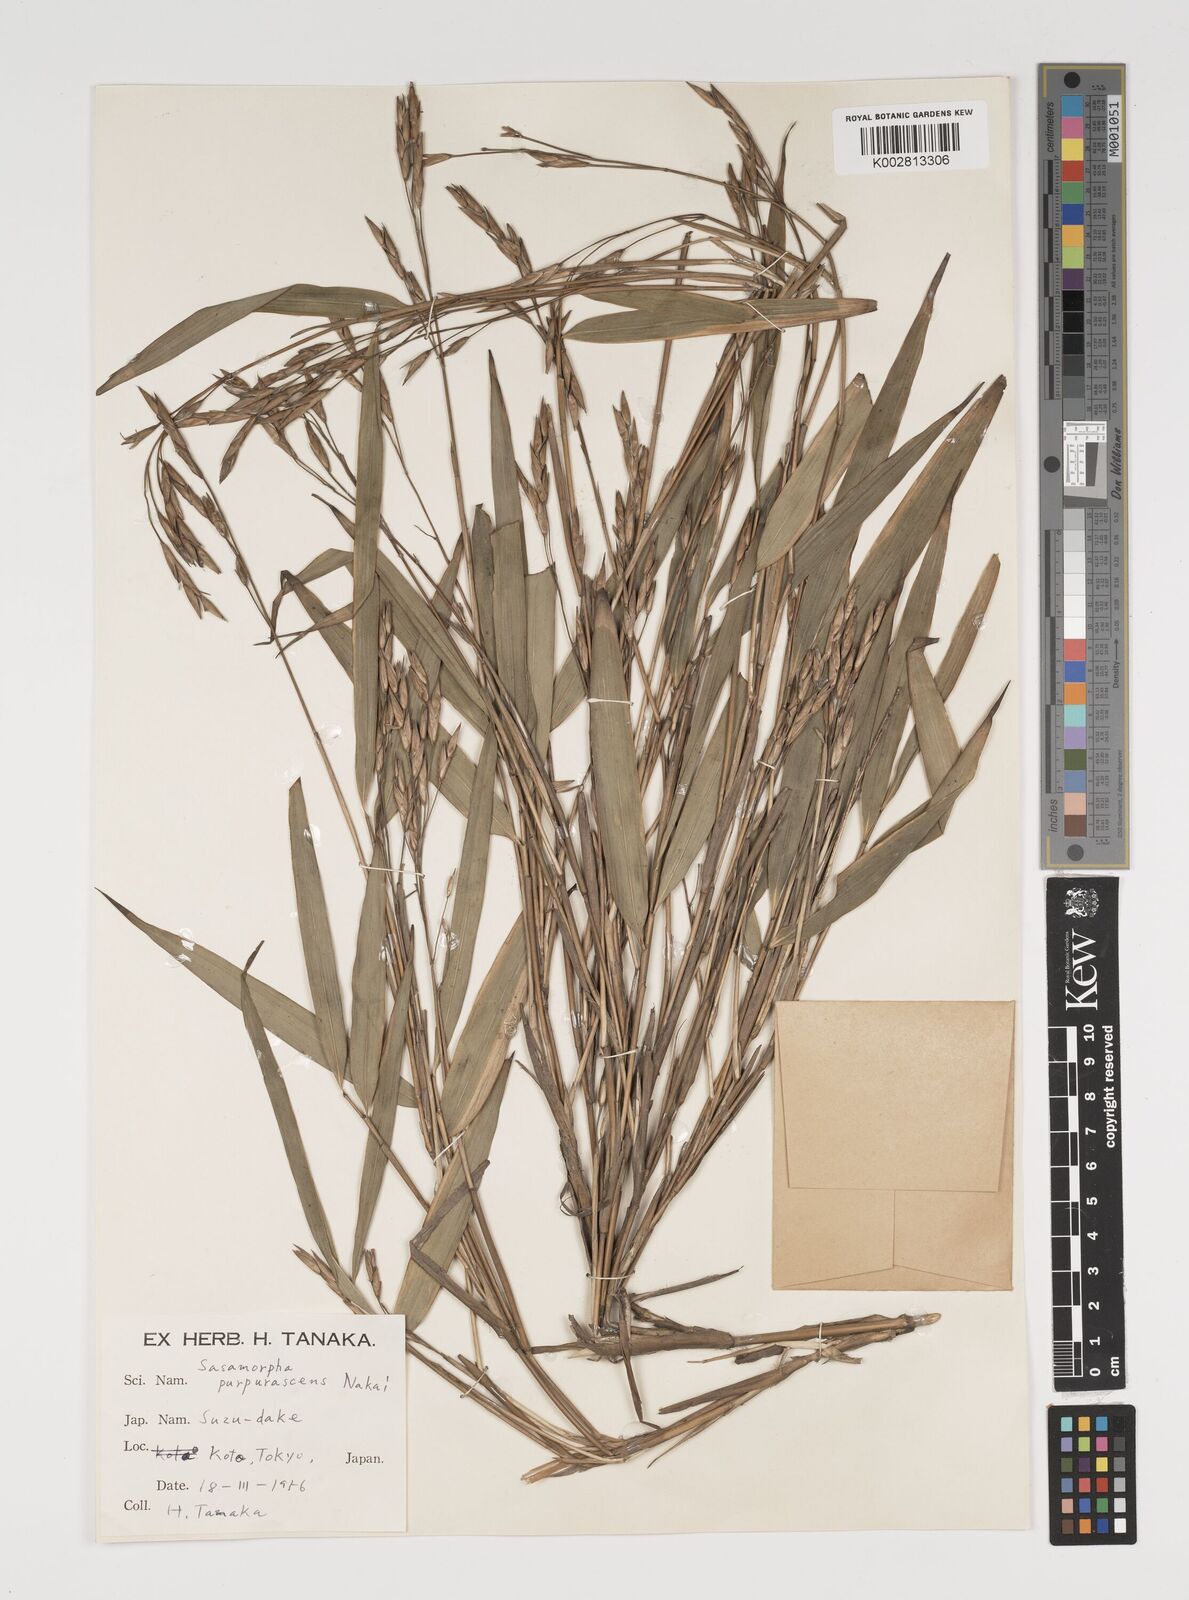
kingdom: Plantae
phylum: Tracheophyta
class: Liliopsida
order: Poales
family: Poaceae
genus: Sasamorpha
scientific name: Sasamorpha borealis
